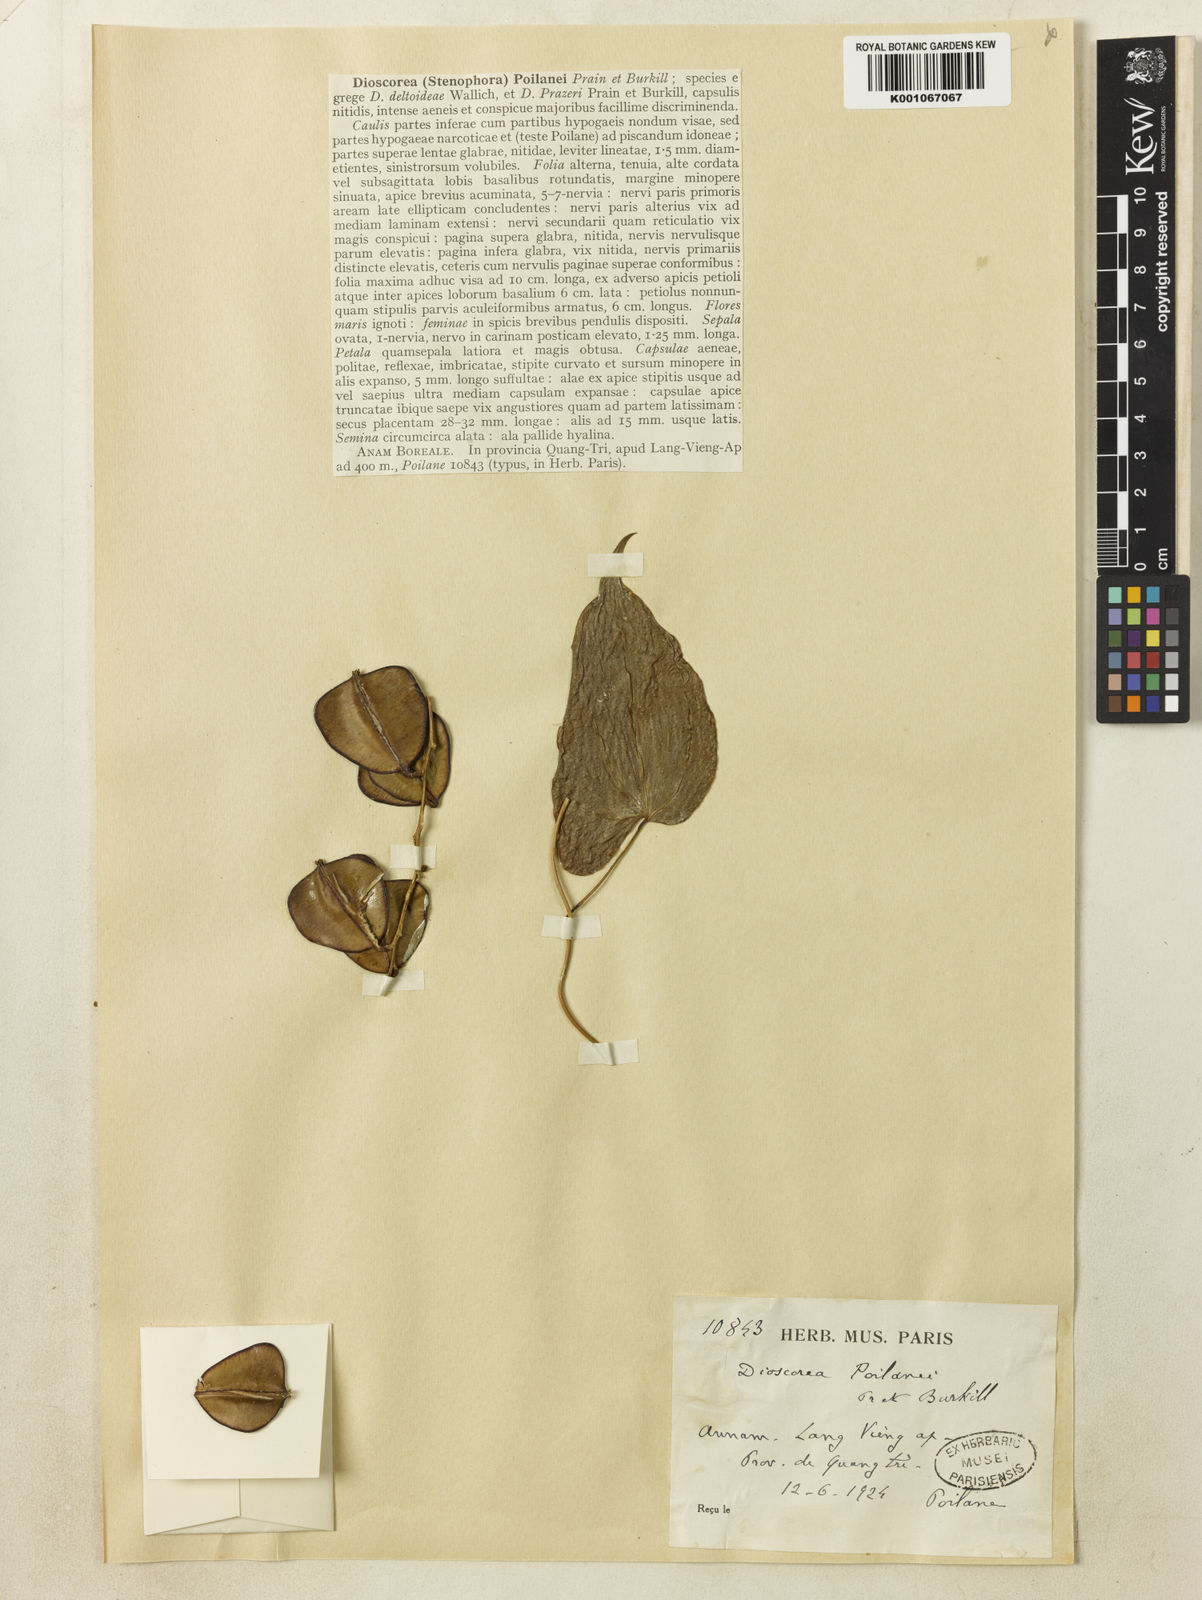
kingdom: Plantae
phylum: Tracheophyta
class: Liliopsida
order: Dioscoreales
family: Dioscoreaceae
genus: Dioscorea
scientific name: Dioscorea poilanei
